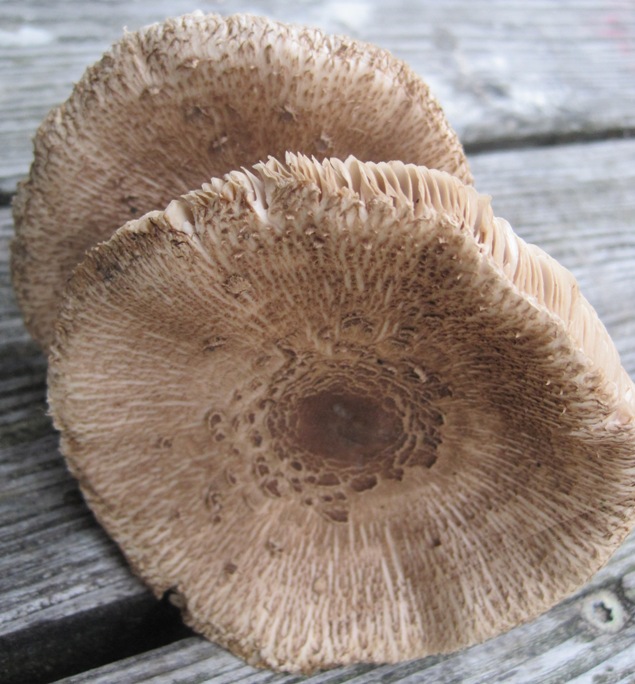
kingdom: Fungi
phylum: Basidiomycota
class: Agaricomycetes
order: Agaricales
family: Agaricaceae
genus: Macrolepiota
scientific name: Macrolepiota fuliginosa
